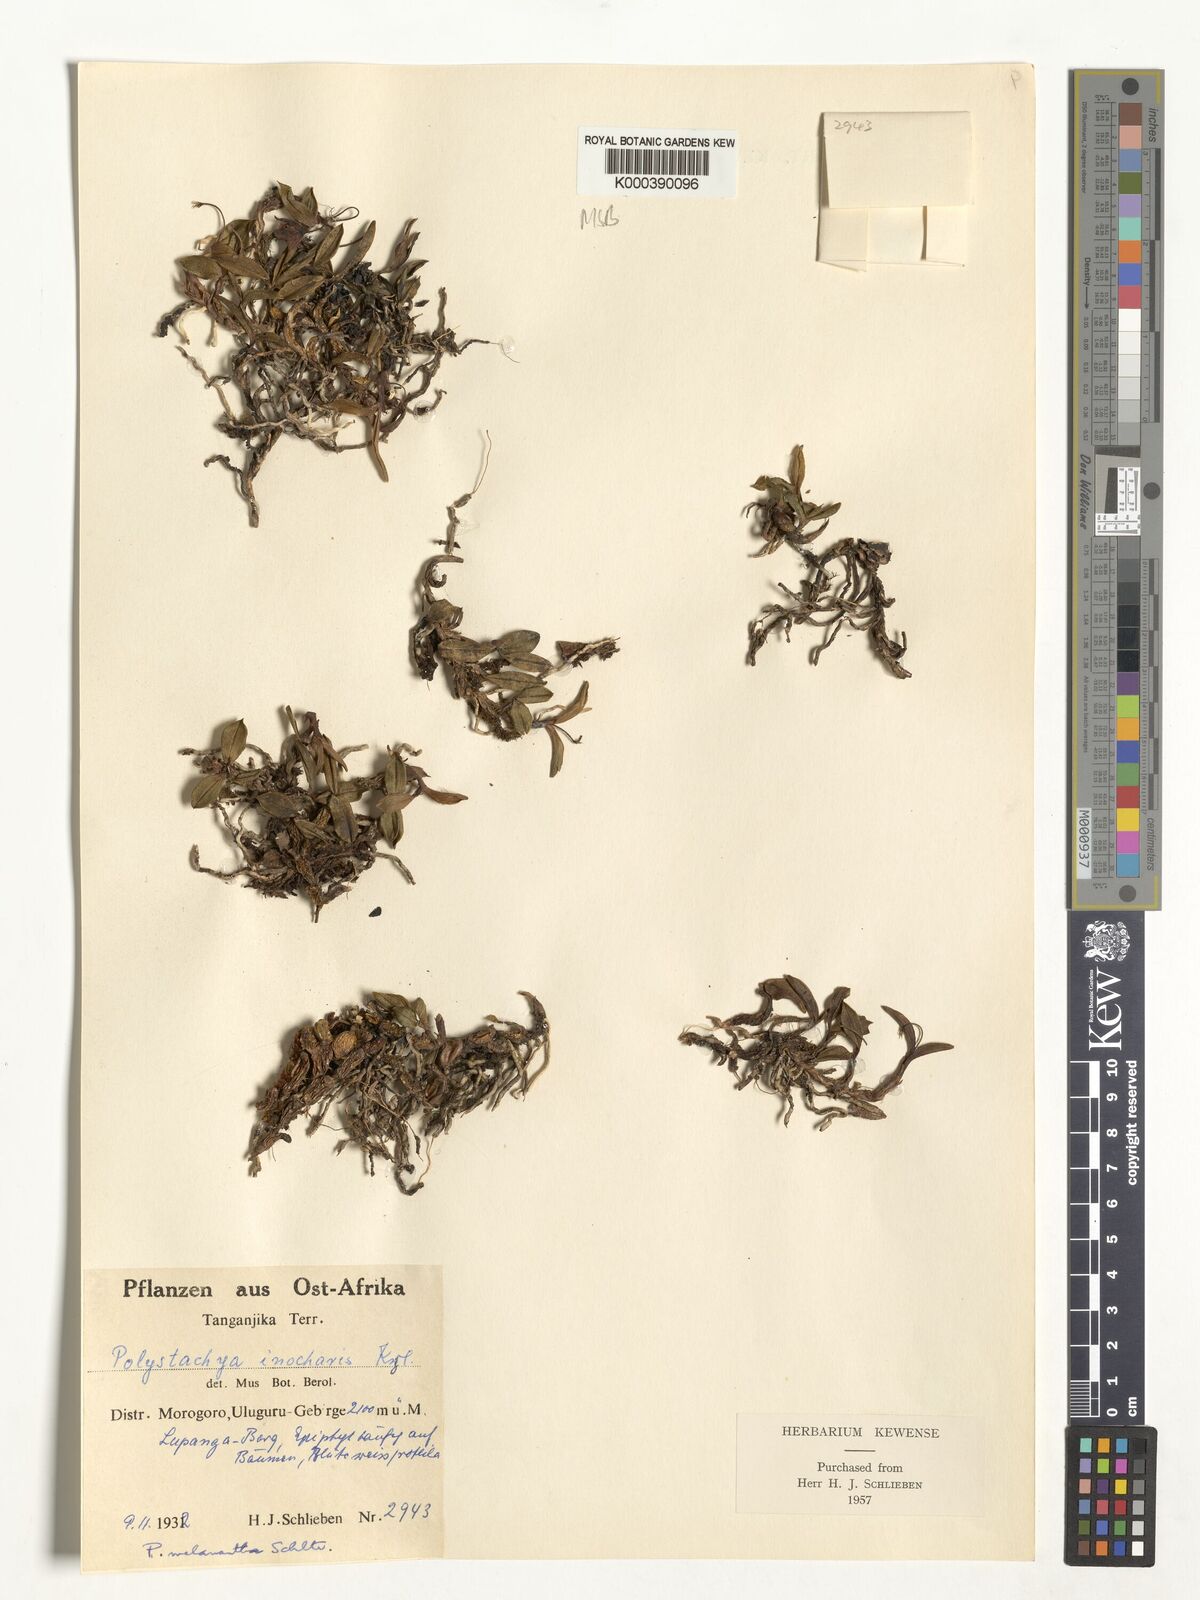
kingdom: Plantae
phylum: Tracheophyta
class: Liliopsida
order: Asparagales
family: Orchidaceae
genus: Polystachya
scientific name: Polystachya melanantha
